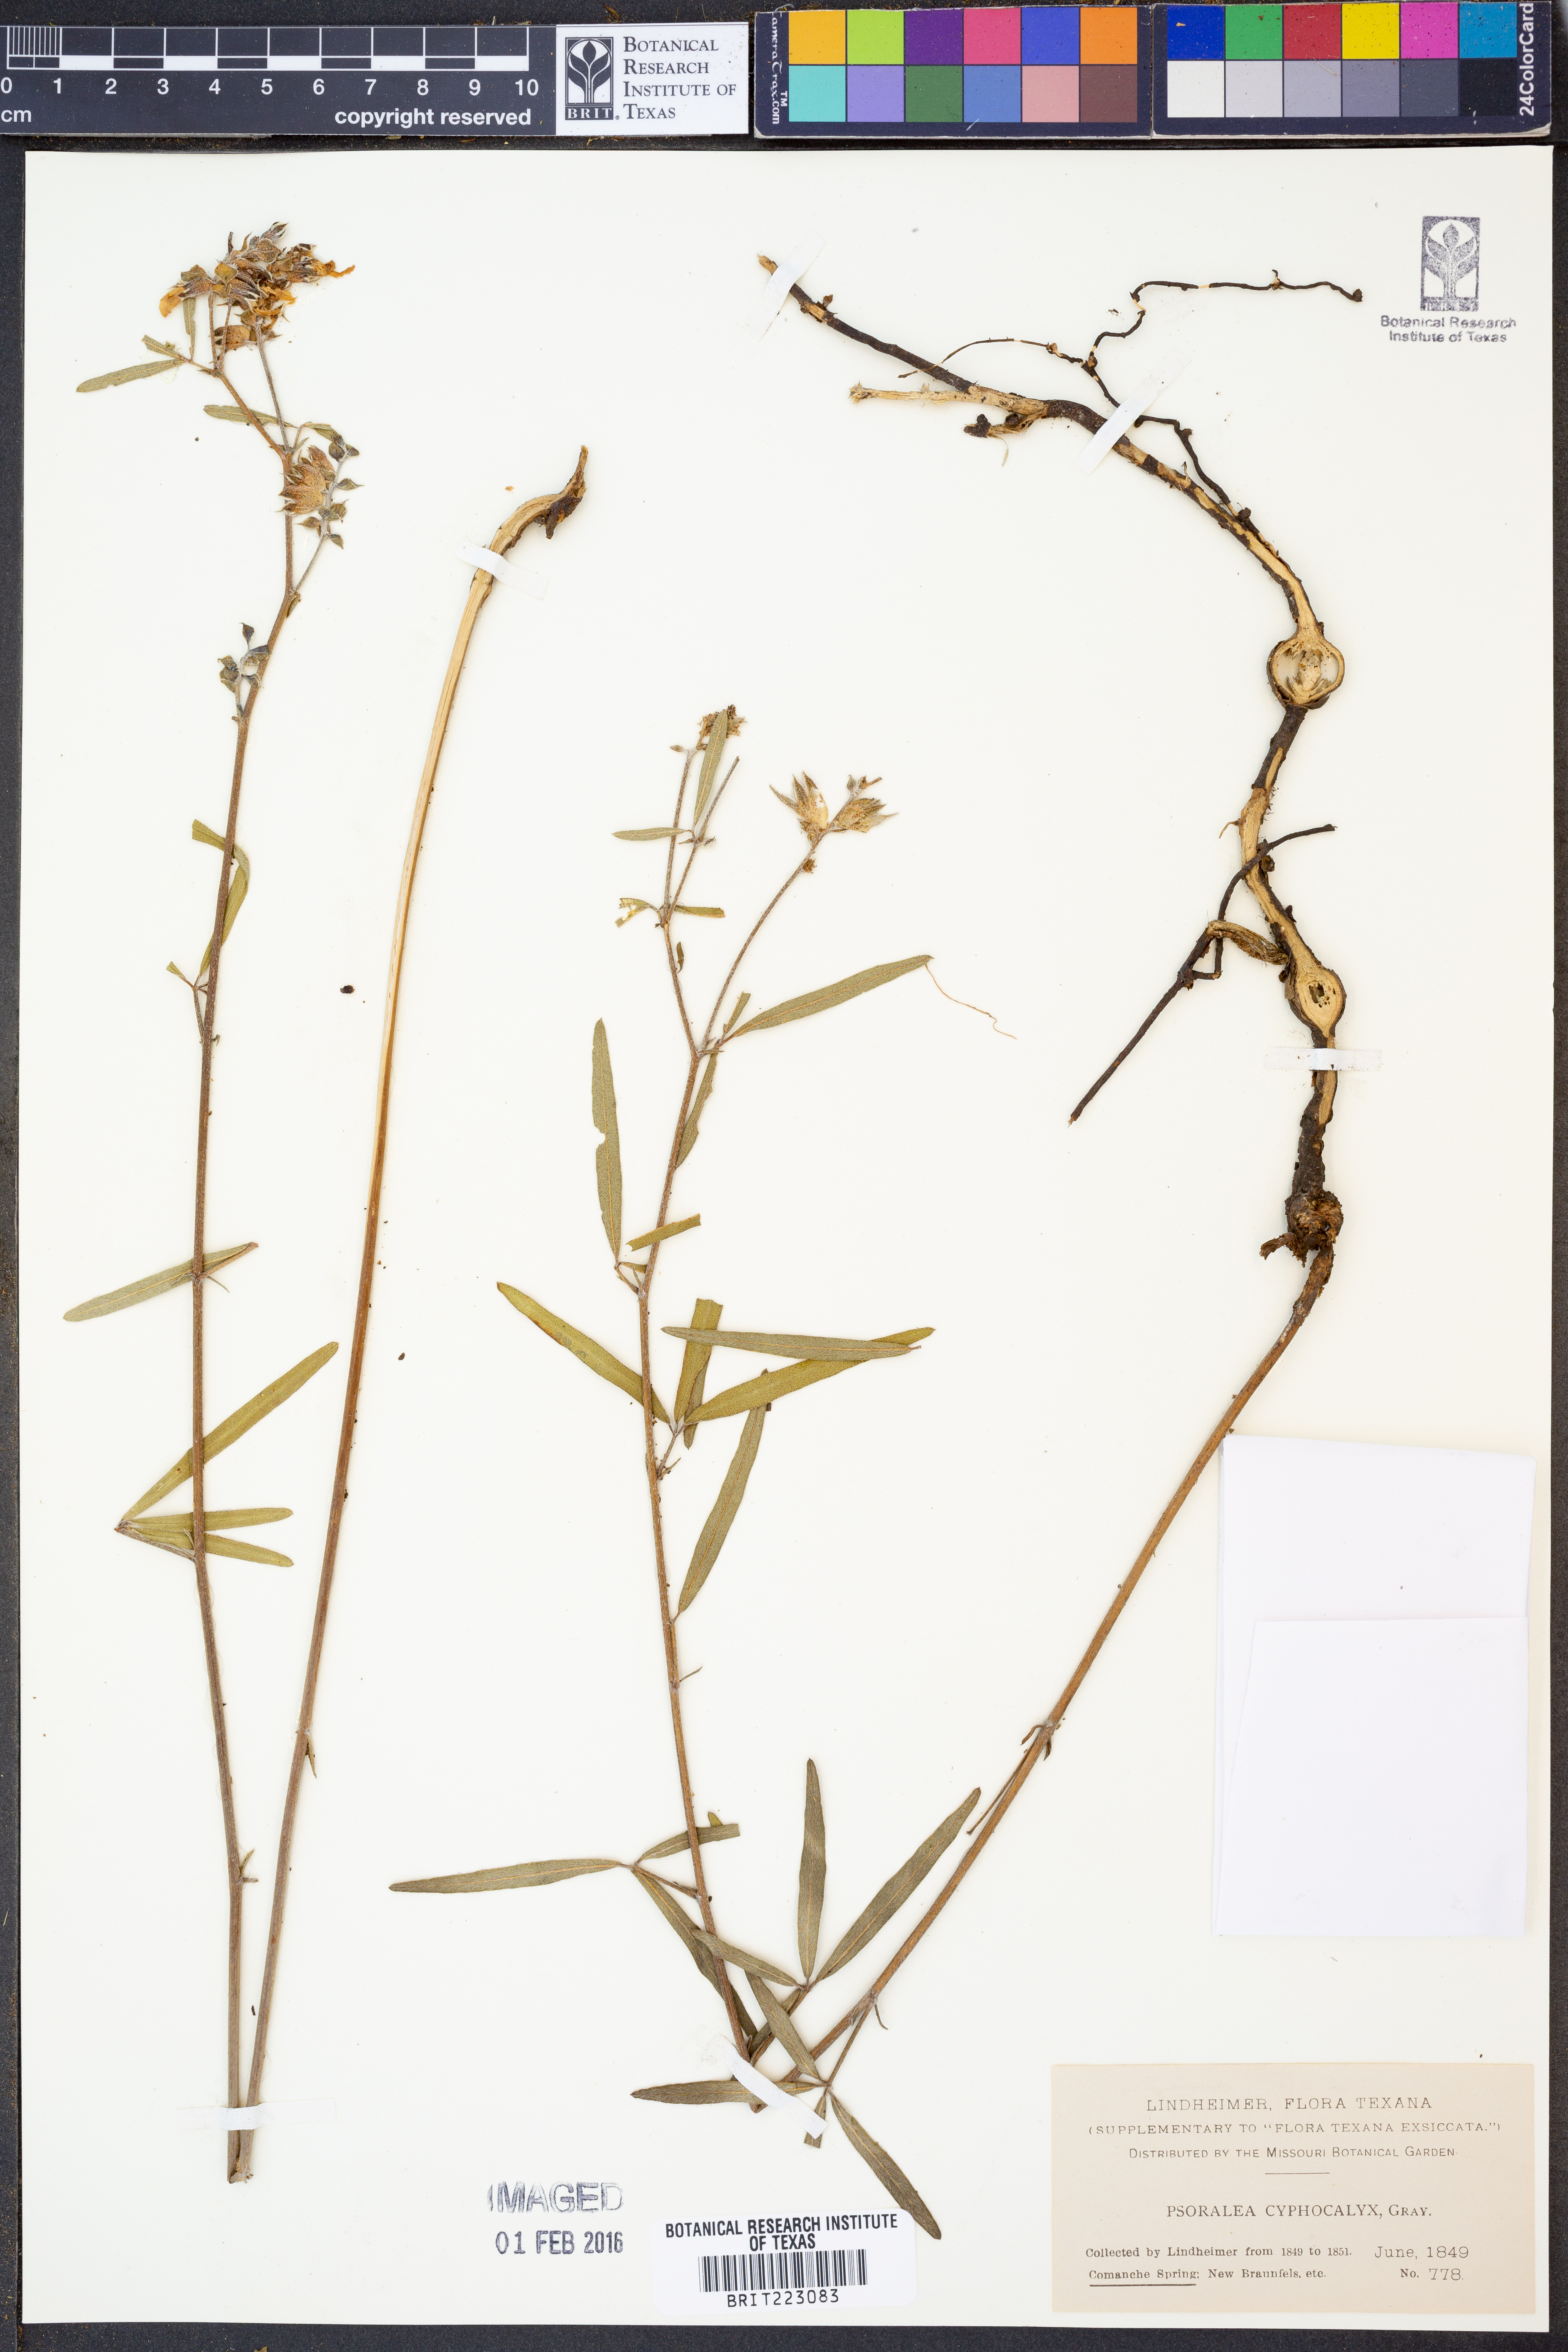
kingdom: Plantae
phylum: Tracheophyta
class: Magnoliopsida
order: Fabales
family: Fabaceae
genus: Pediomelum
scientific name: Pediomelum cyphocalyx
